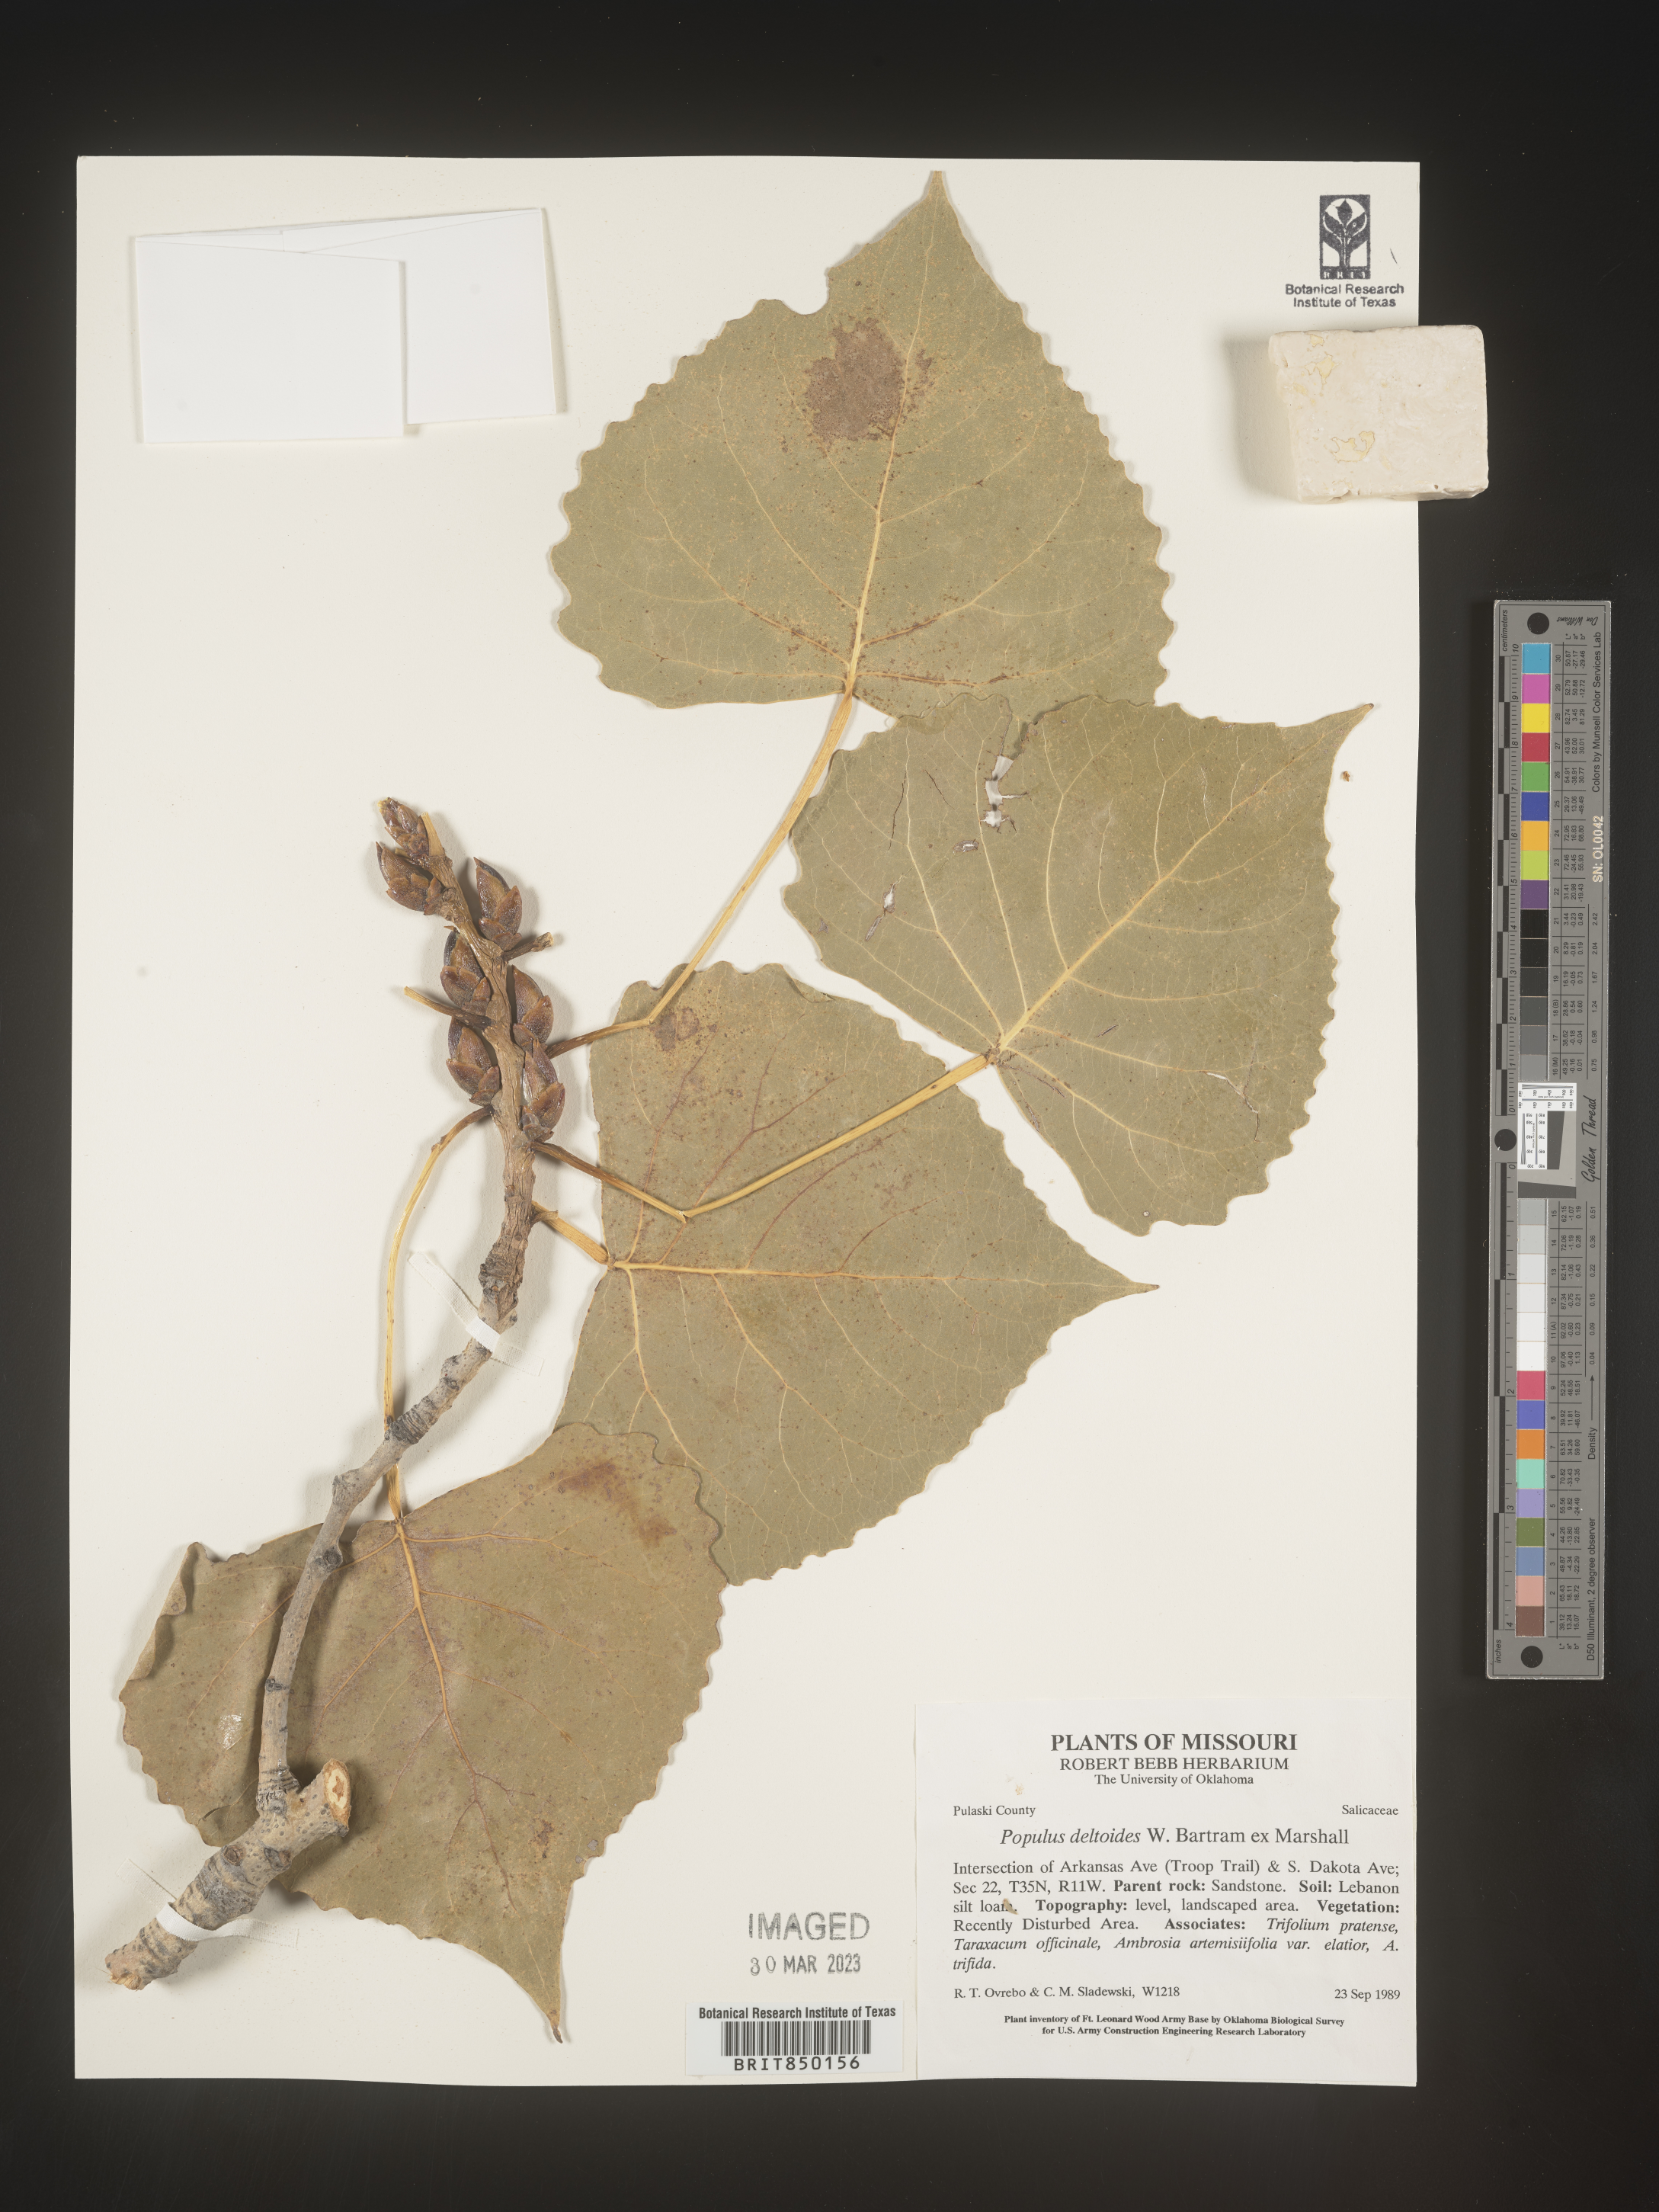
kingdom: Plantae
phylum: Tracheophyta
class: Magnoliopsida
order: Malpighiales
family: Salicaceae
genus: Populus
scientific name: Populus deltoides
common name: Eastern cottonwood
